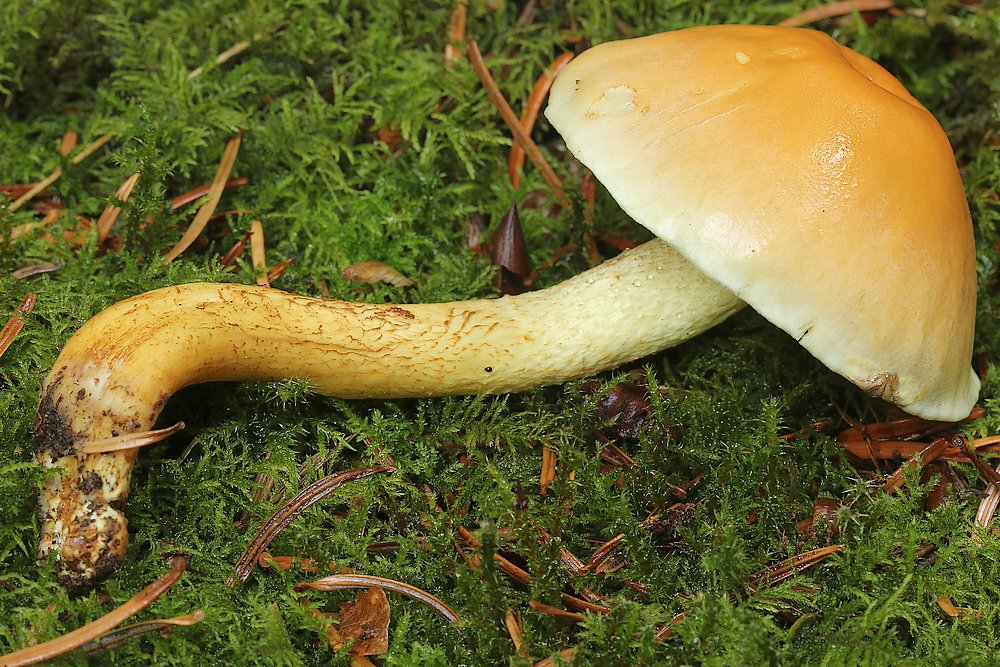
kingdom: Fungi
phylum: Basidiomycota
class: Agaricomycetes
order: Agaricales
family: Strophariaceae
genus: Hypholoma
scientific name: Hypholoma fasciculare
